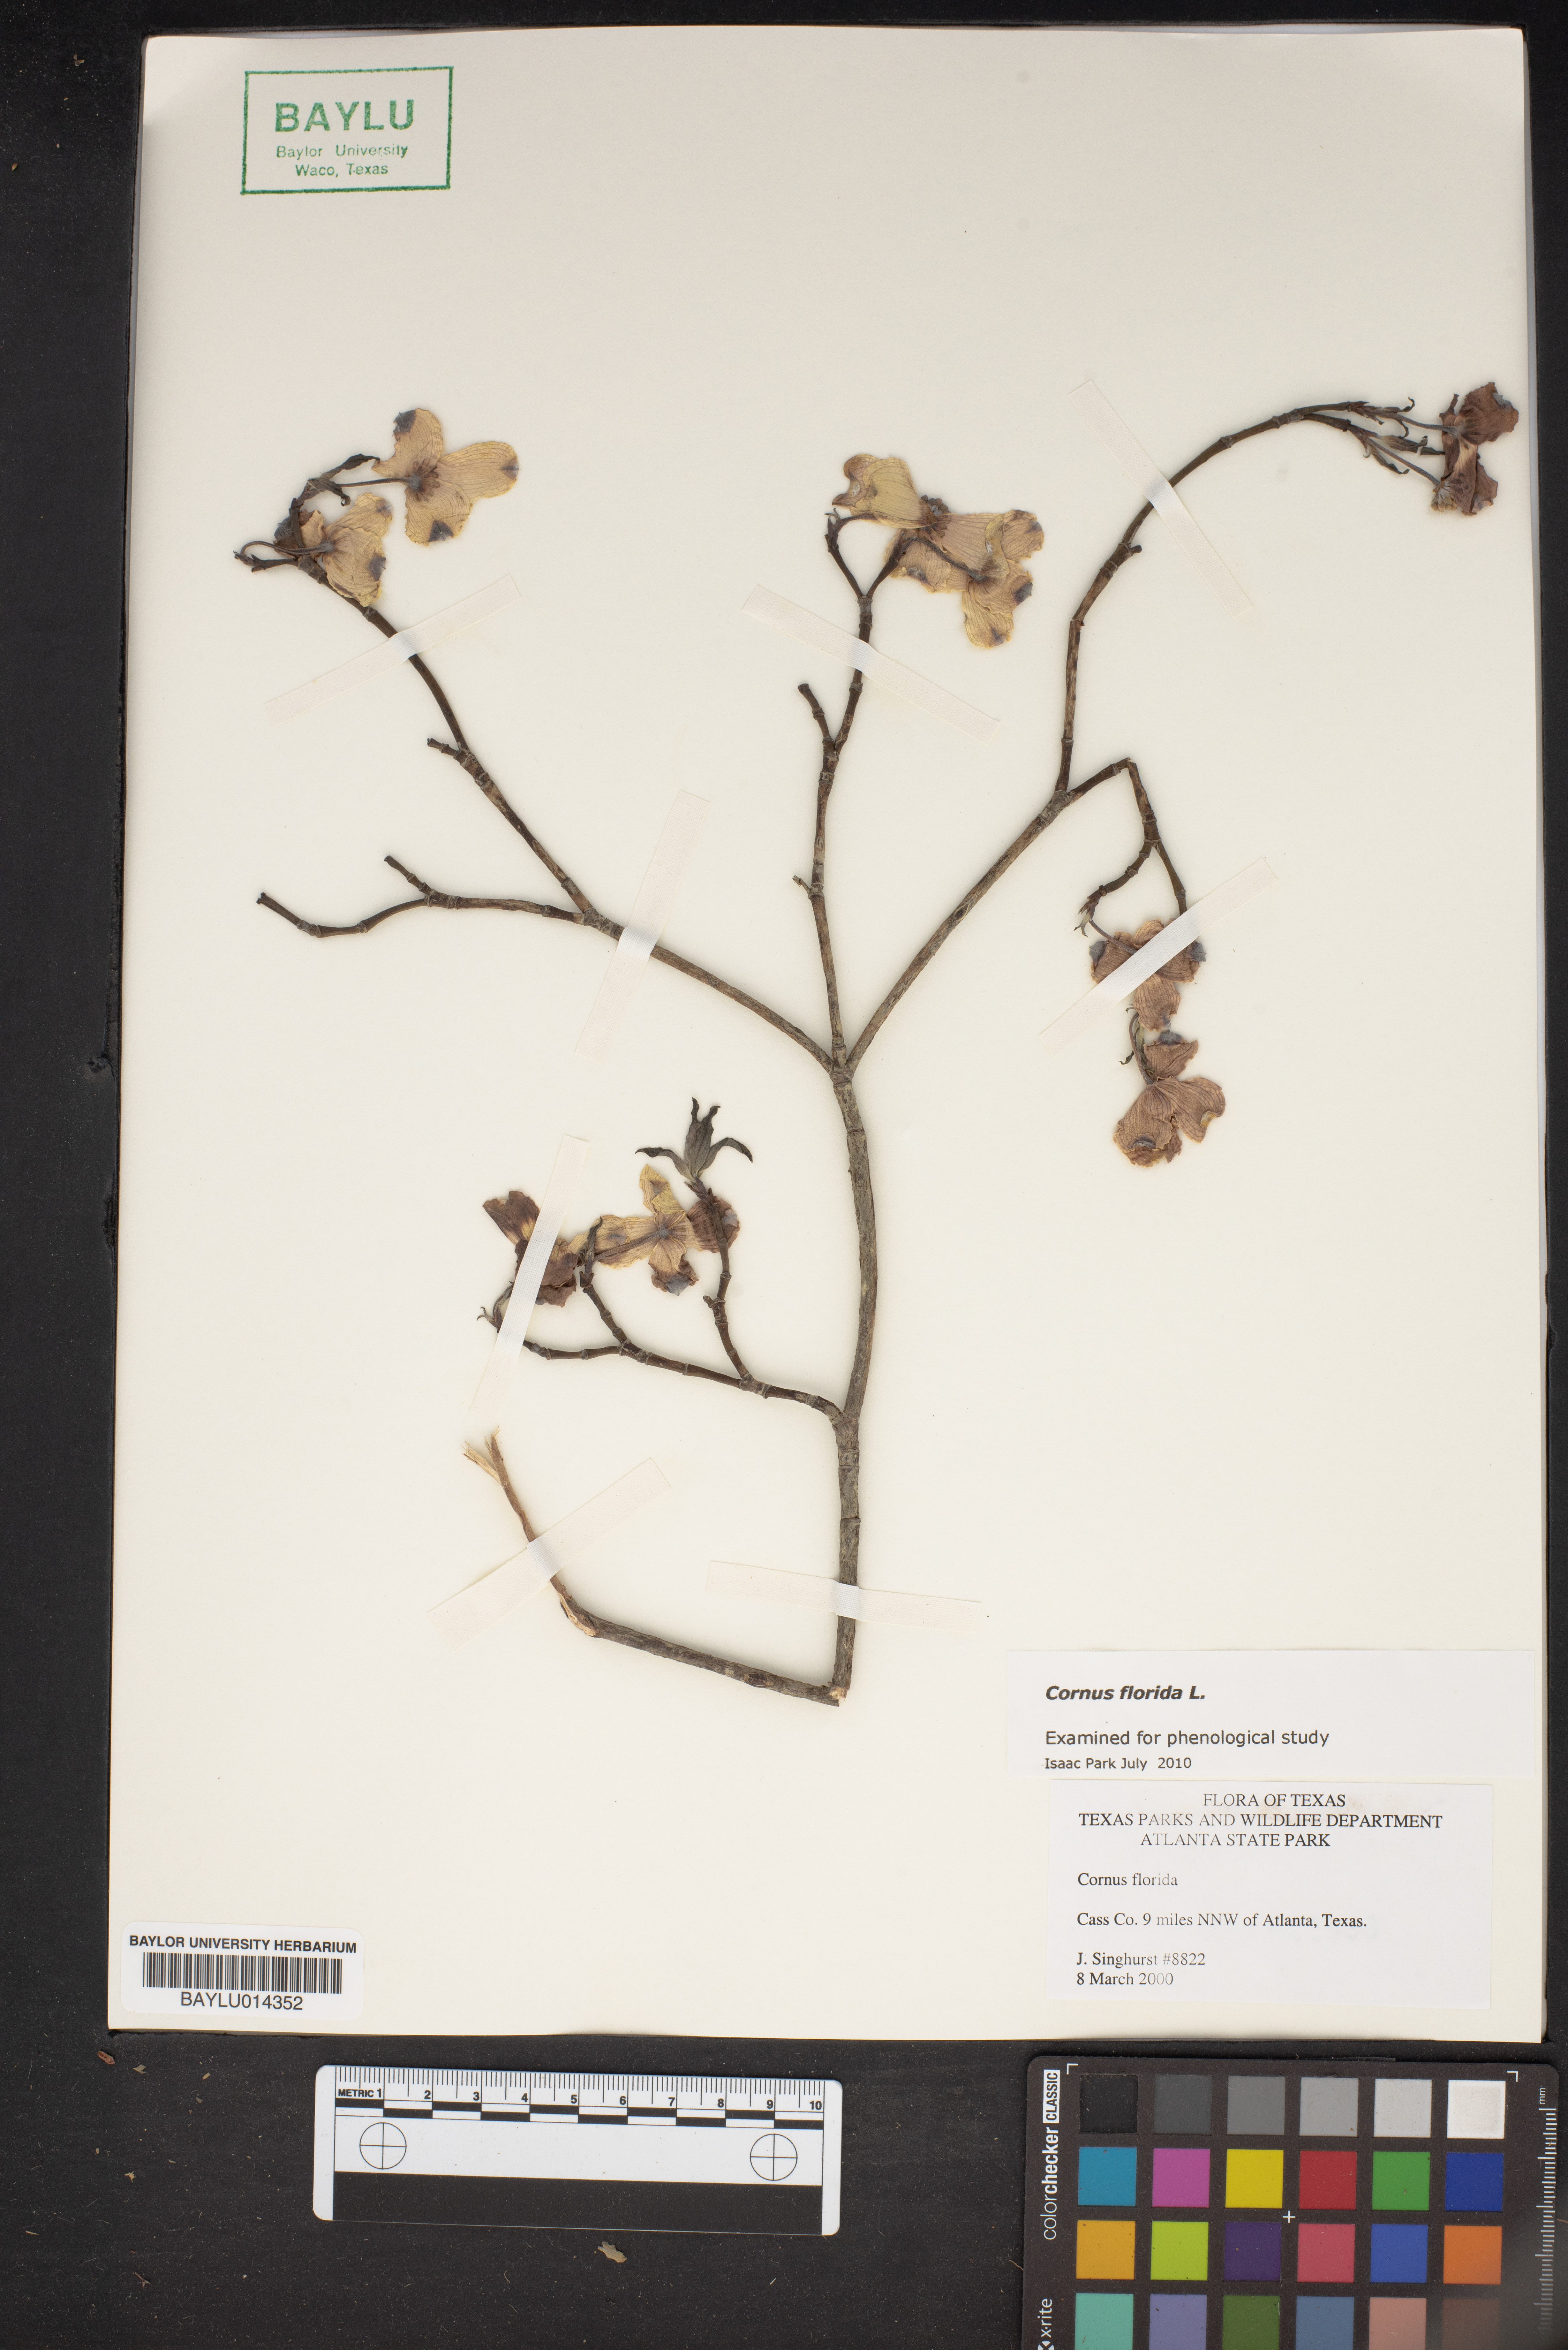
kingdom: Plantae
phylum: Tracheophyta
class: Magnoliopsida
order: Cornales
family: Cornaceae
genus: Cornus
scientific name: Cornus florida
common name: Flowering dogwood
